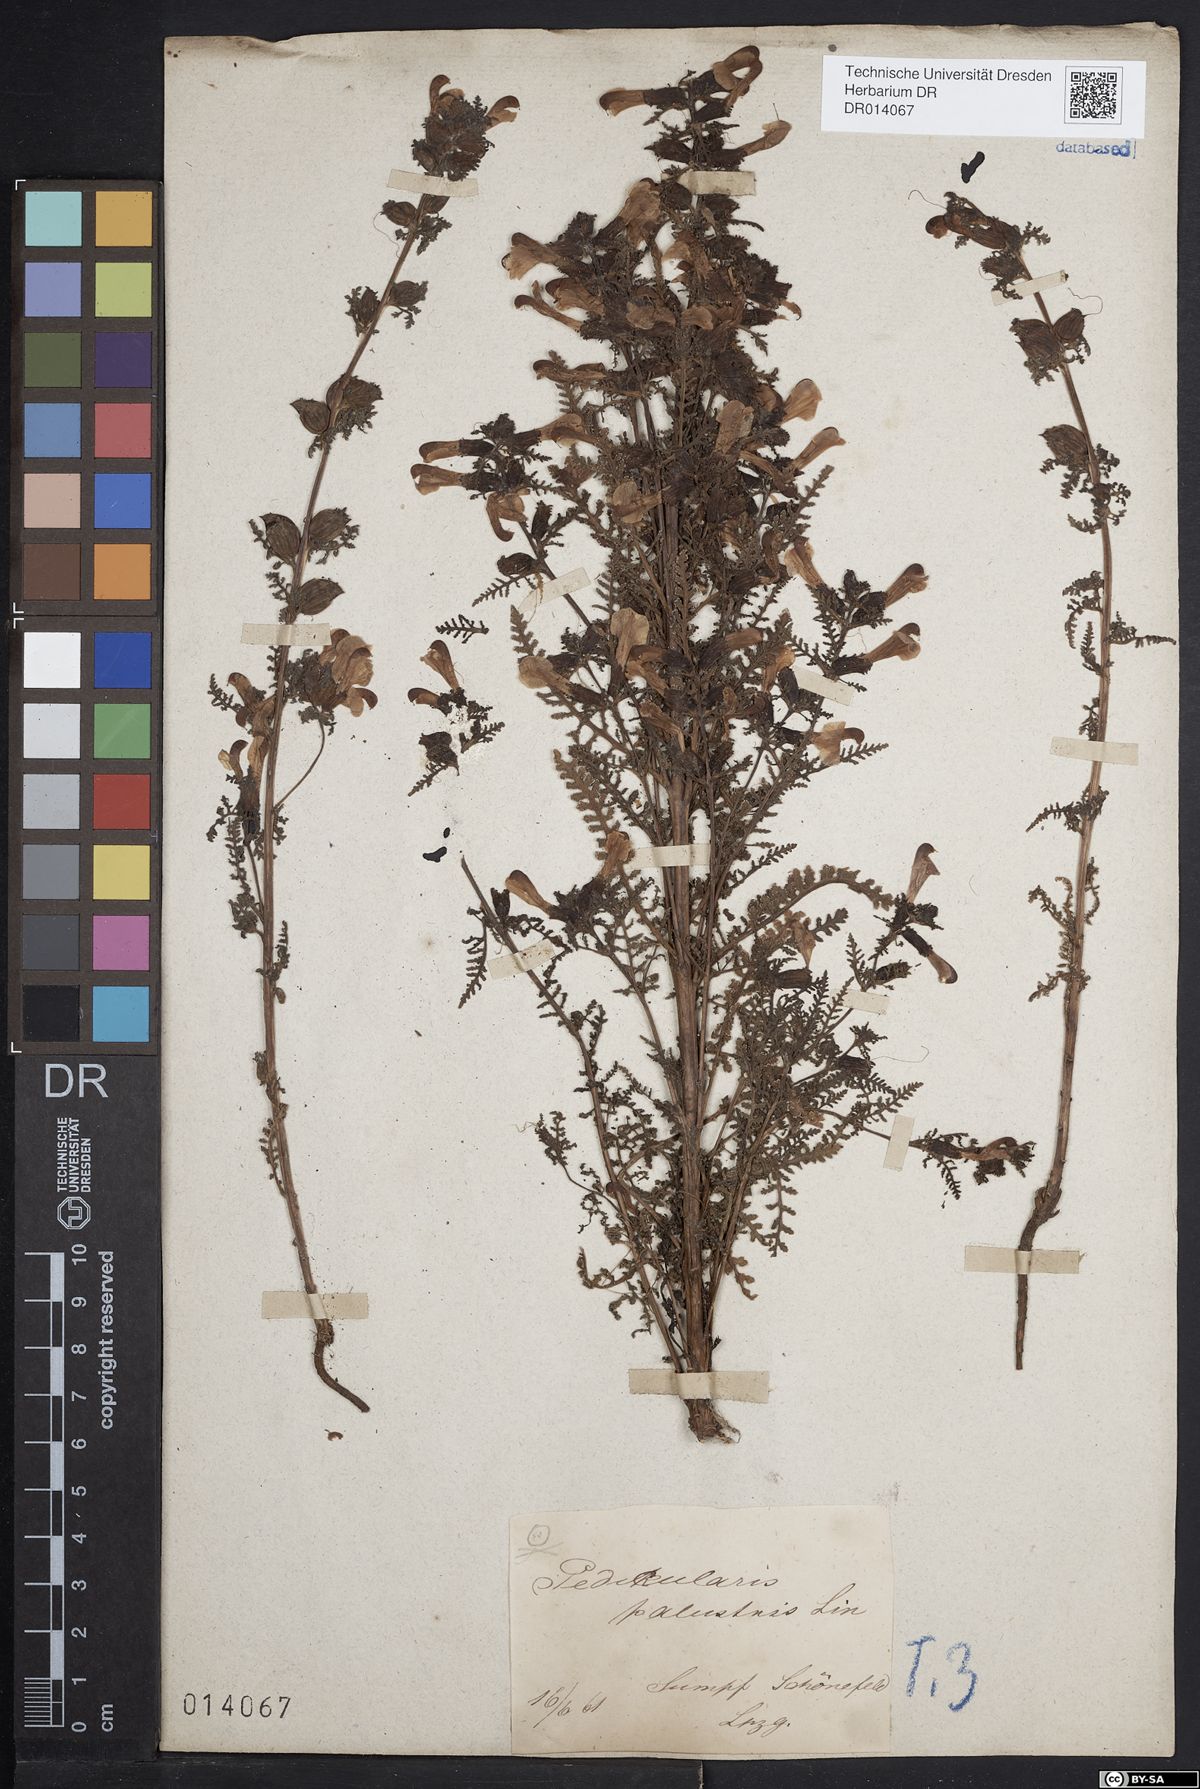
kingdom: Plantae
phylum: Tracheophyta
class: Magnoliopsida
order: Lamiales
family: Orobanchaceae
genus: Pedicularis
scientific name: Pedicularis palustris
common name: Marsh lousewort
